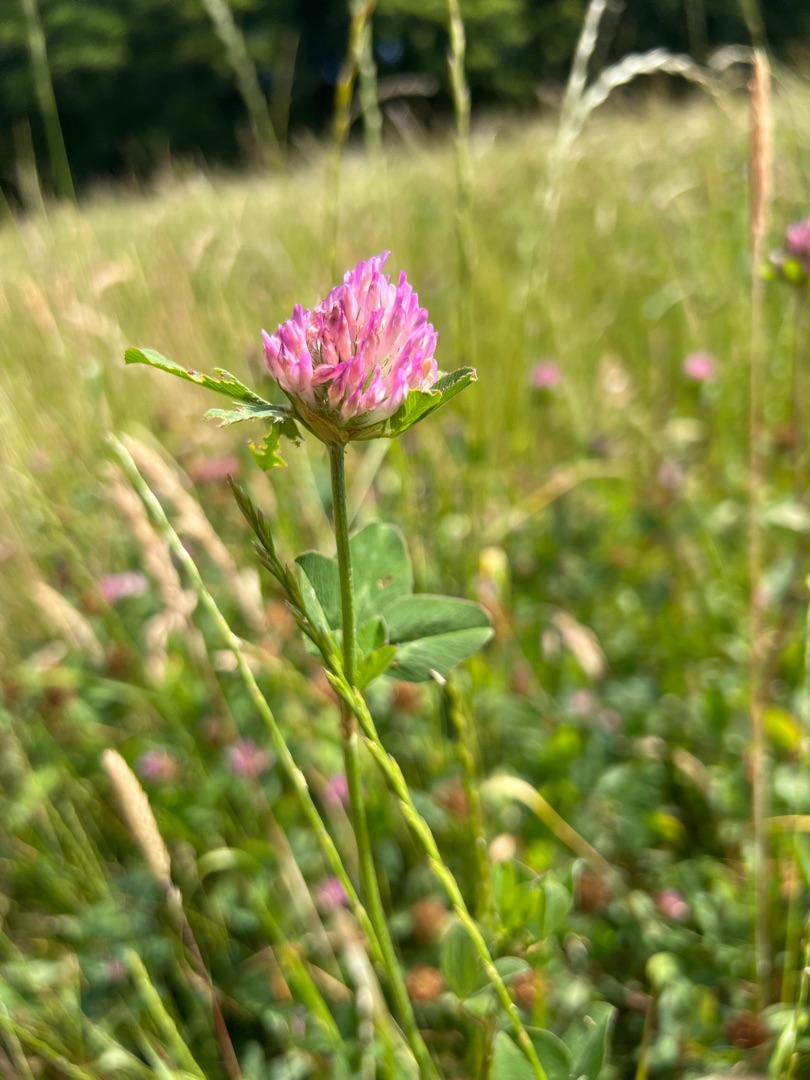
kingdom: Plantae
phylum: Tracheophyta
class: Magnoliopsida
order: Fabales
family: Fabaceae
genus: Trifolium
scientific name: Trifolium pratense
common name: Rød-kløver
